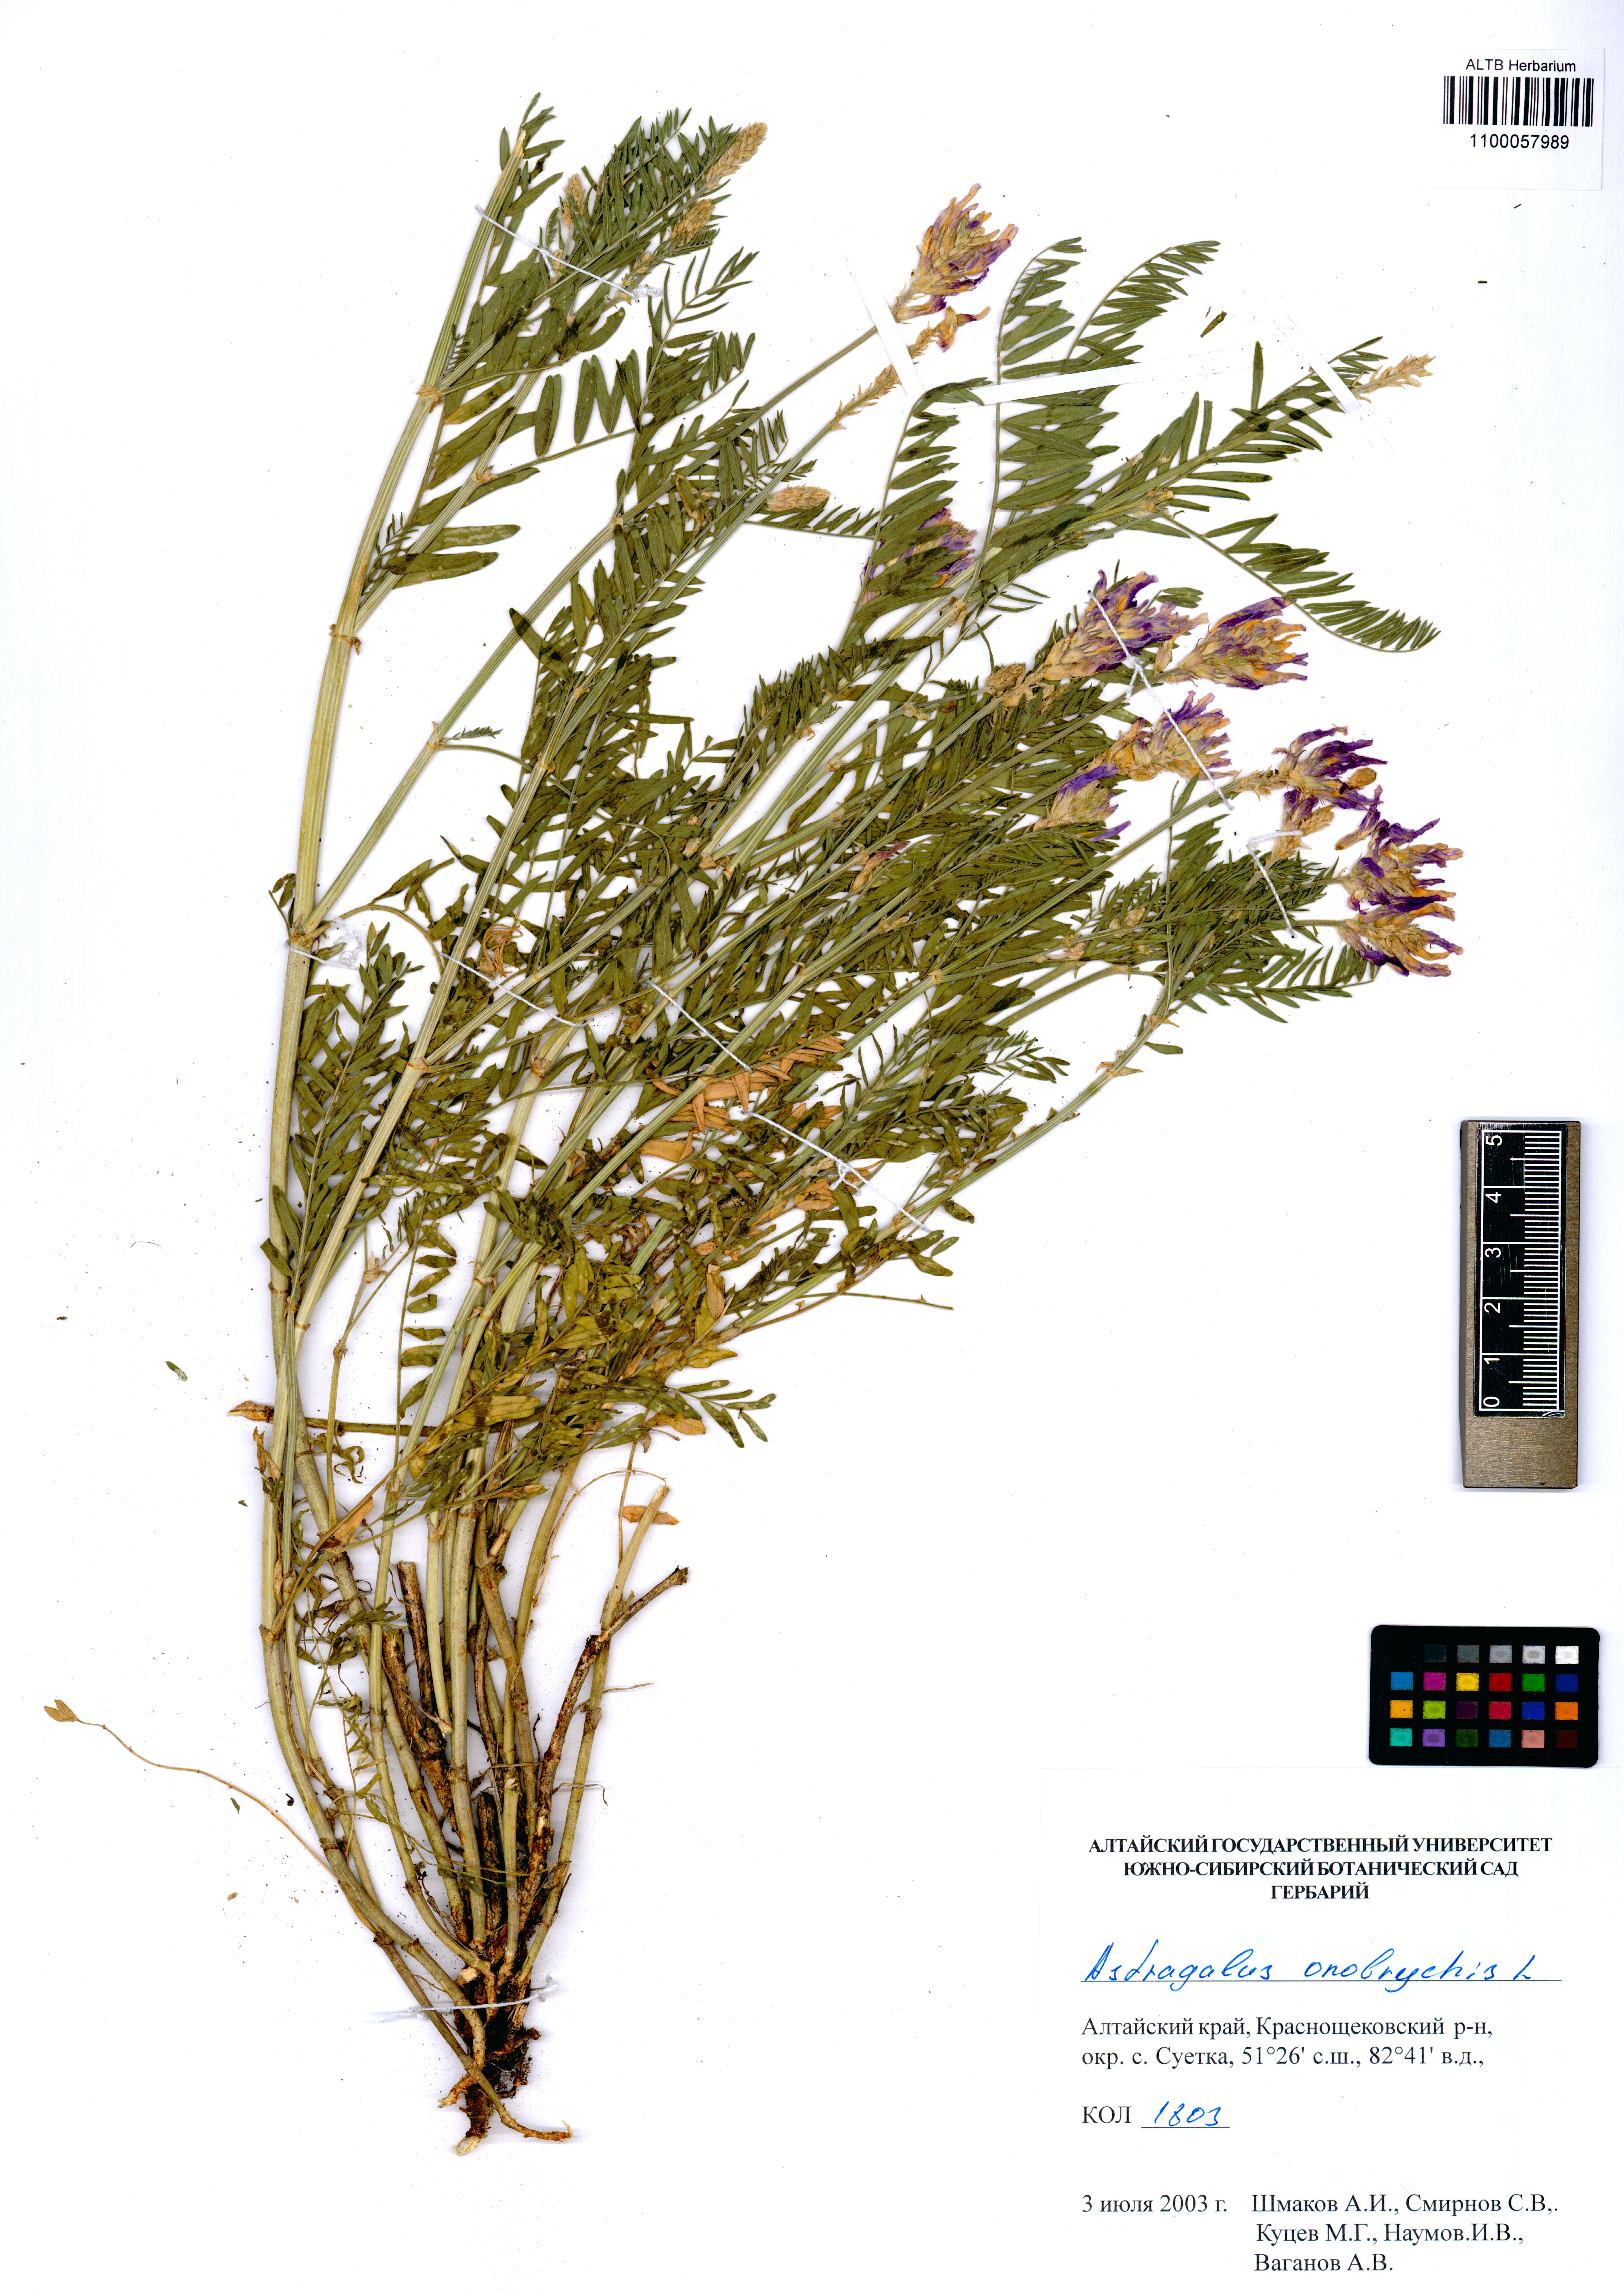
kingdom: Plantae
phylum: Tracheophyta
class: Magnoliopsida
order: Fabales
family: Fabaceae
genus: Astragalus
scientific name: Astragalus onobrychis
